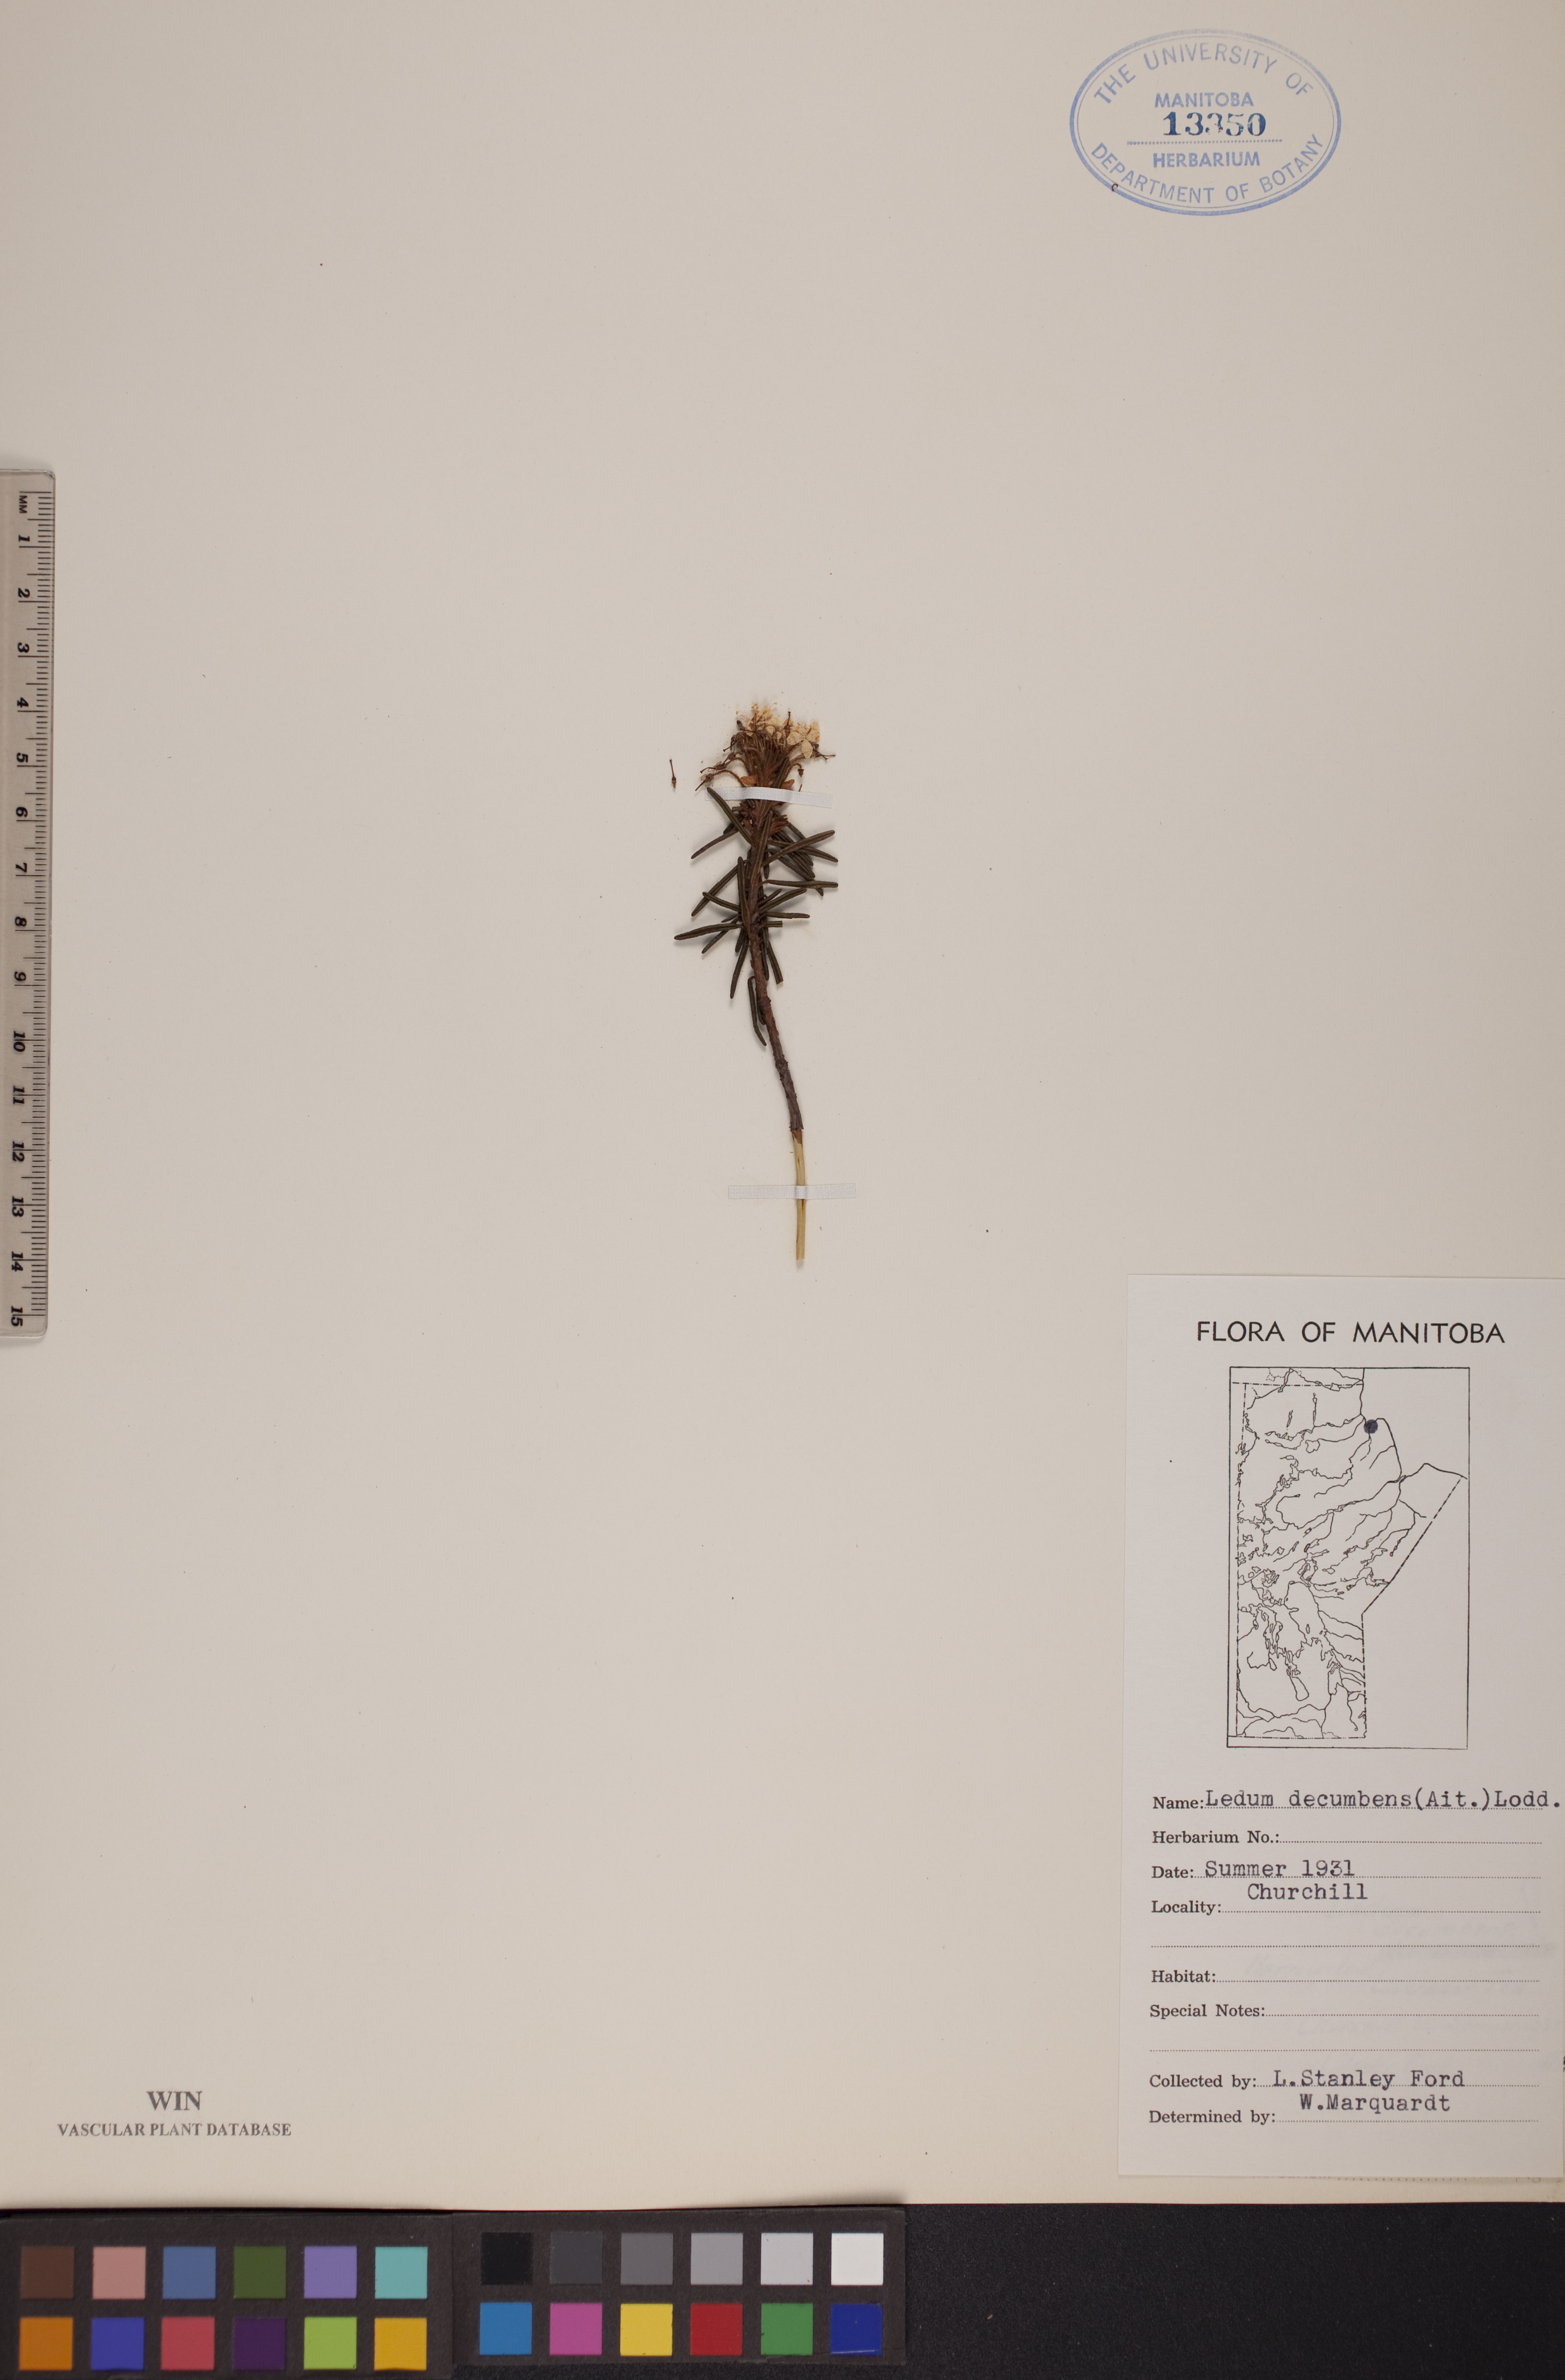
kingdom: Plantae
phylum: Tracheophyta
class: Magnoliopsida
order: Ericales
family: Ericaceae
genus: Rhododendron
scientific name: Rhododendron tomentosum
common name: Marsh labrador tea
